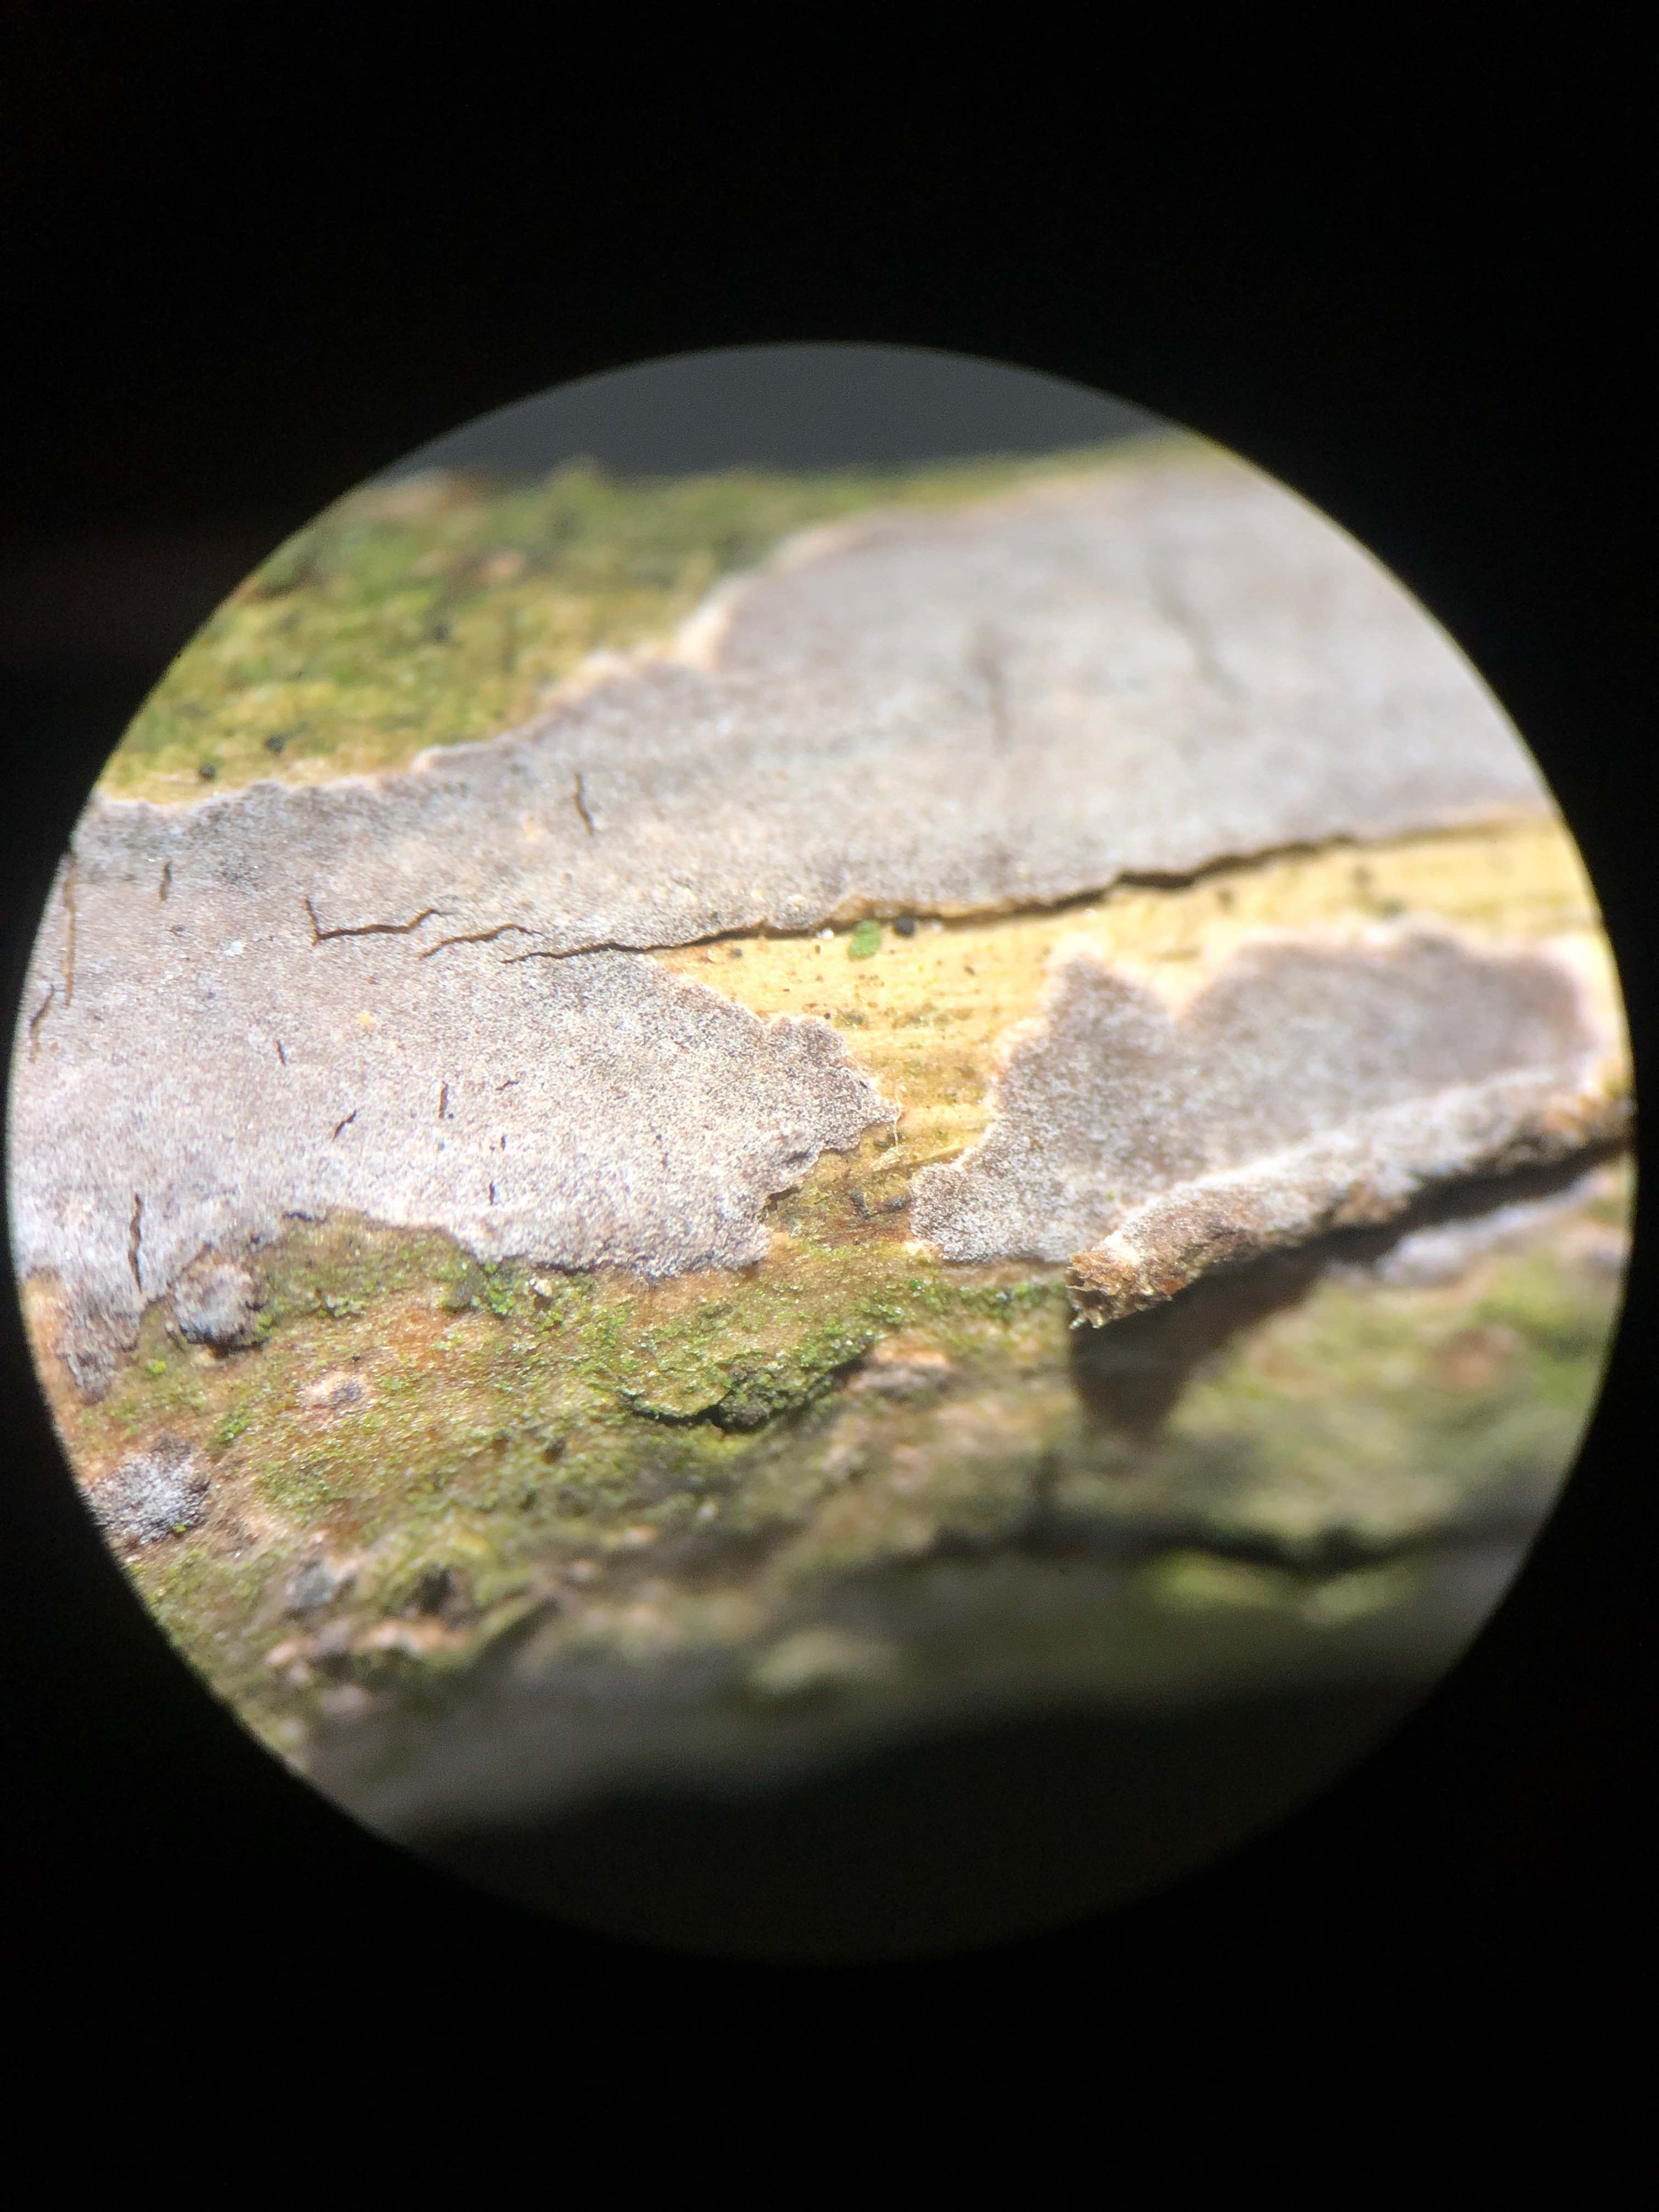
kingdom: Fungi
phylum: Basidiomycota
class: Agaricomycetes
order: Russulales
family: Peniophoraceae
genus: Peniophora
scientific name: Peniophora lycii
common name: grynet voksskind
